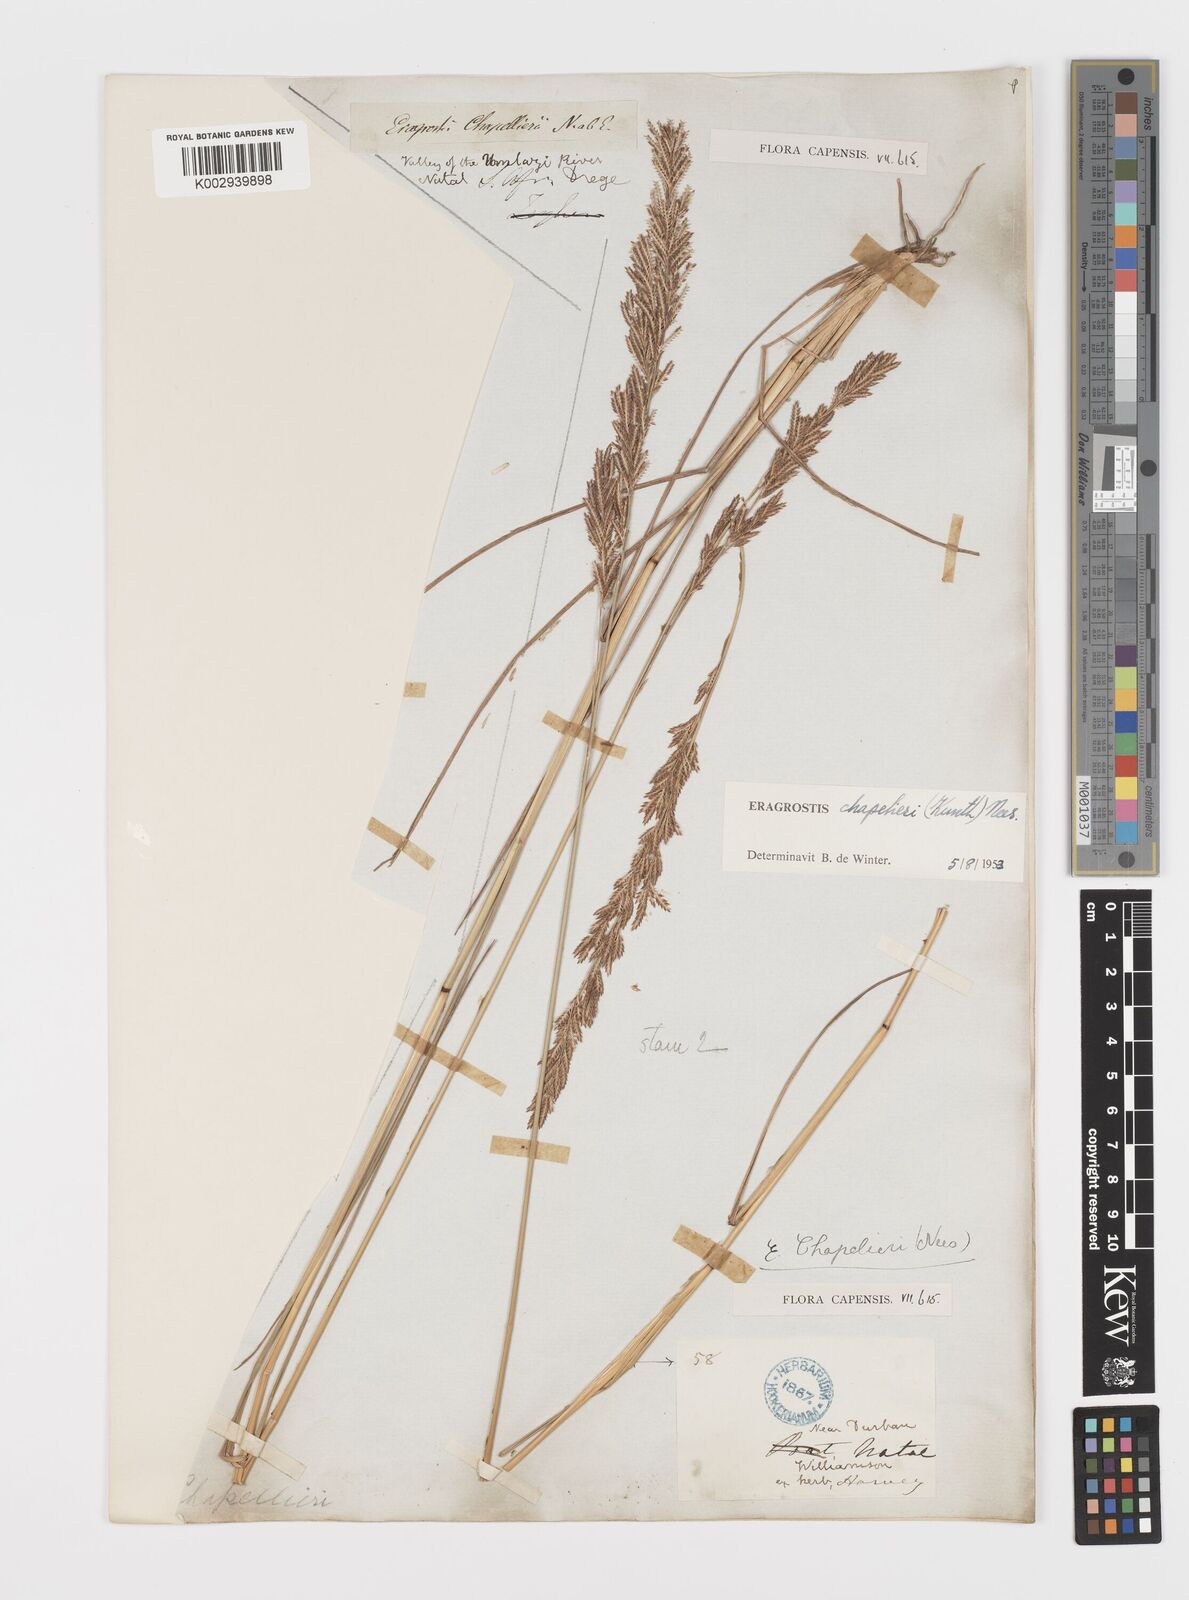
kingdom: Plantae
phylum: Tracheophyta
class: Liliopsida
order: Poales
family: Poaceae
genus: Eragrostis
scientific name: Eragrostis chapelieri
